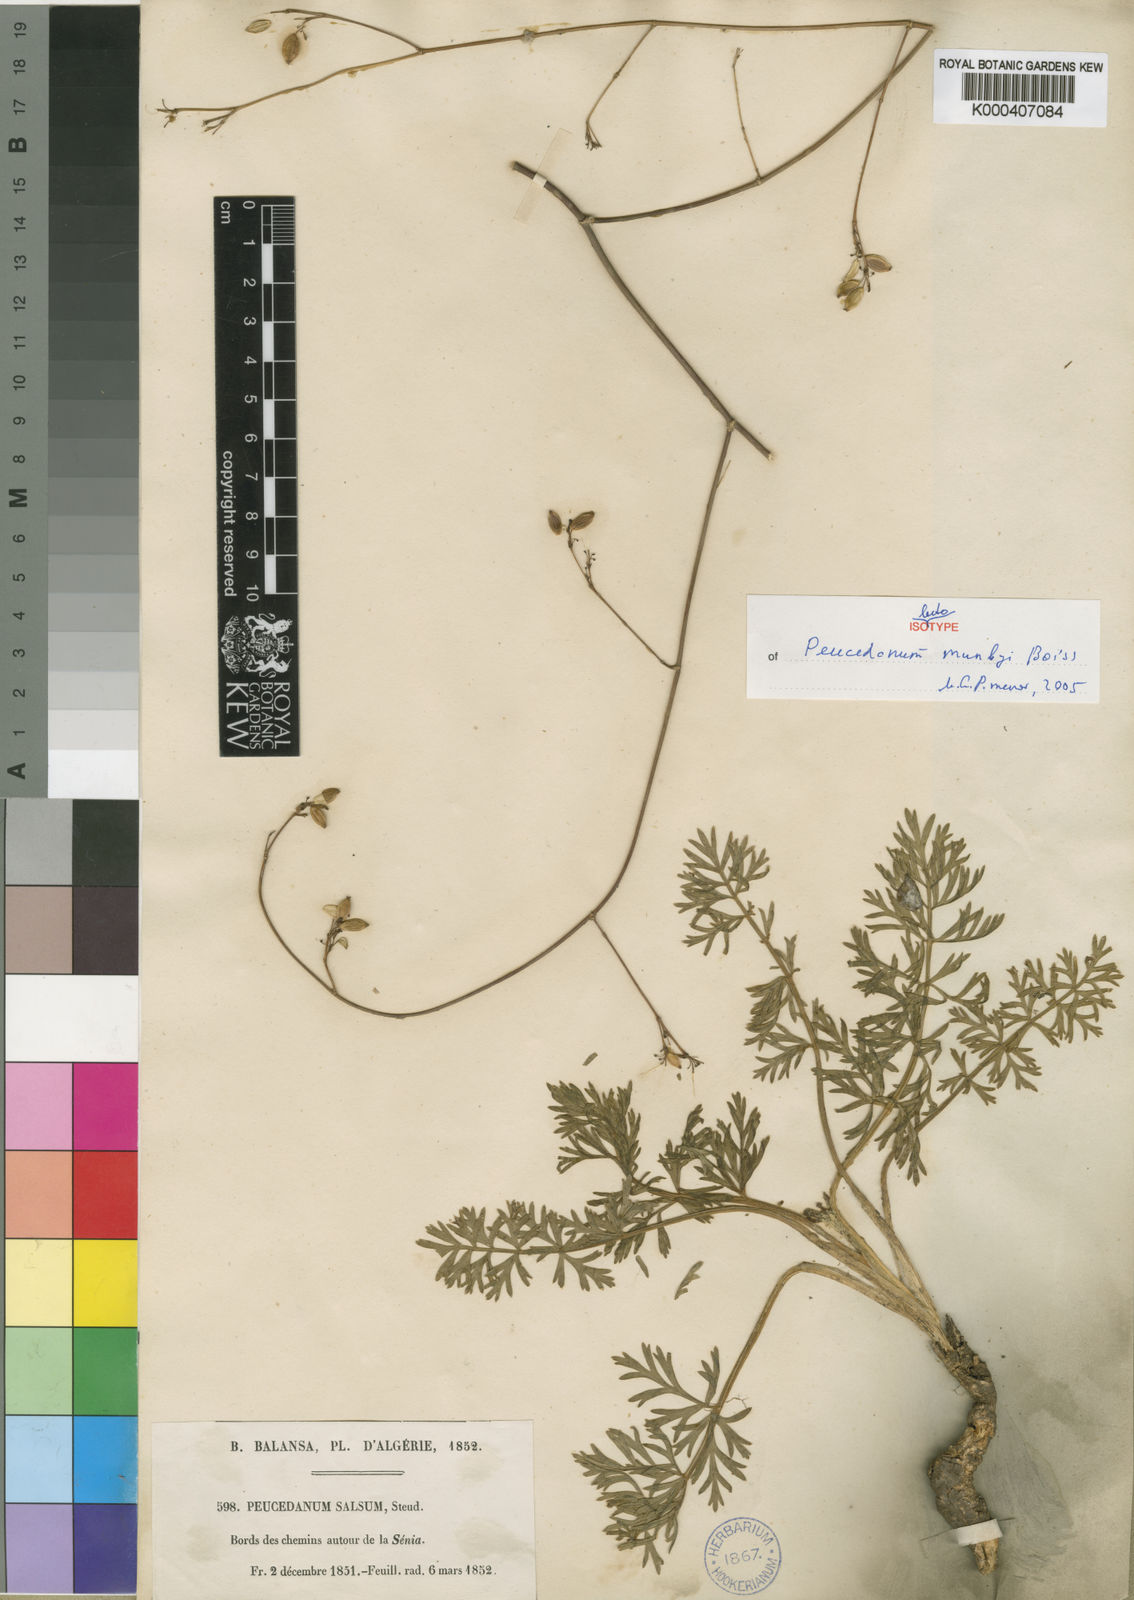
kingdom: Plantae
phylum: Tracheophyta
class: Magnoliopsida
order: Apiales
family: Apiaceae
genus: Dichoropetalum
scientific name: Dichoropetalum munbyi
